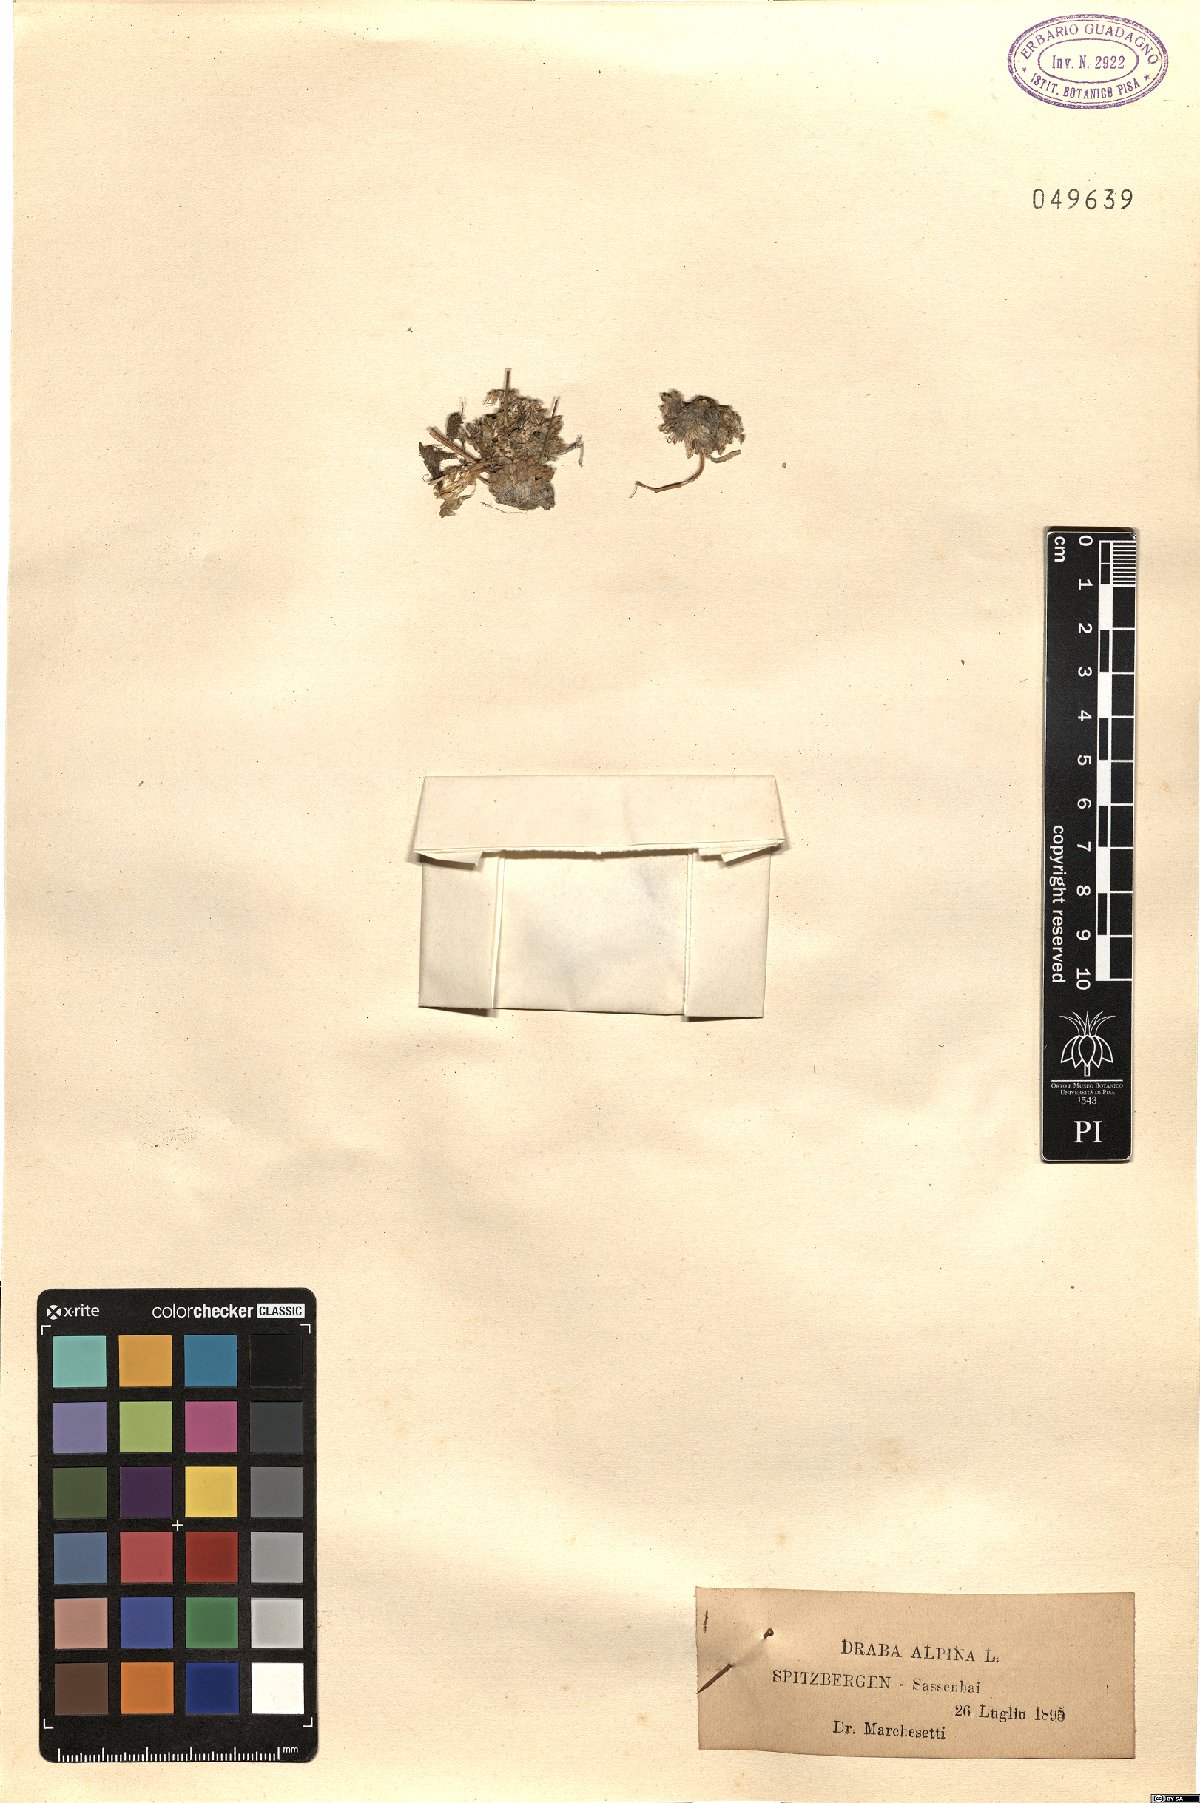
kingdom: Plantae
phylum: Tracheophyta
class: Magnoliopsida
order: Brassicales
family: Brassicaceae
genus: Draba
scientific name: Draba alpina
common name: Alpine draba
